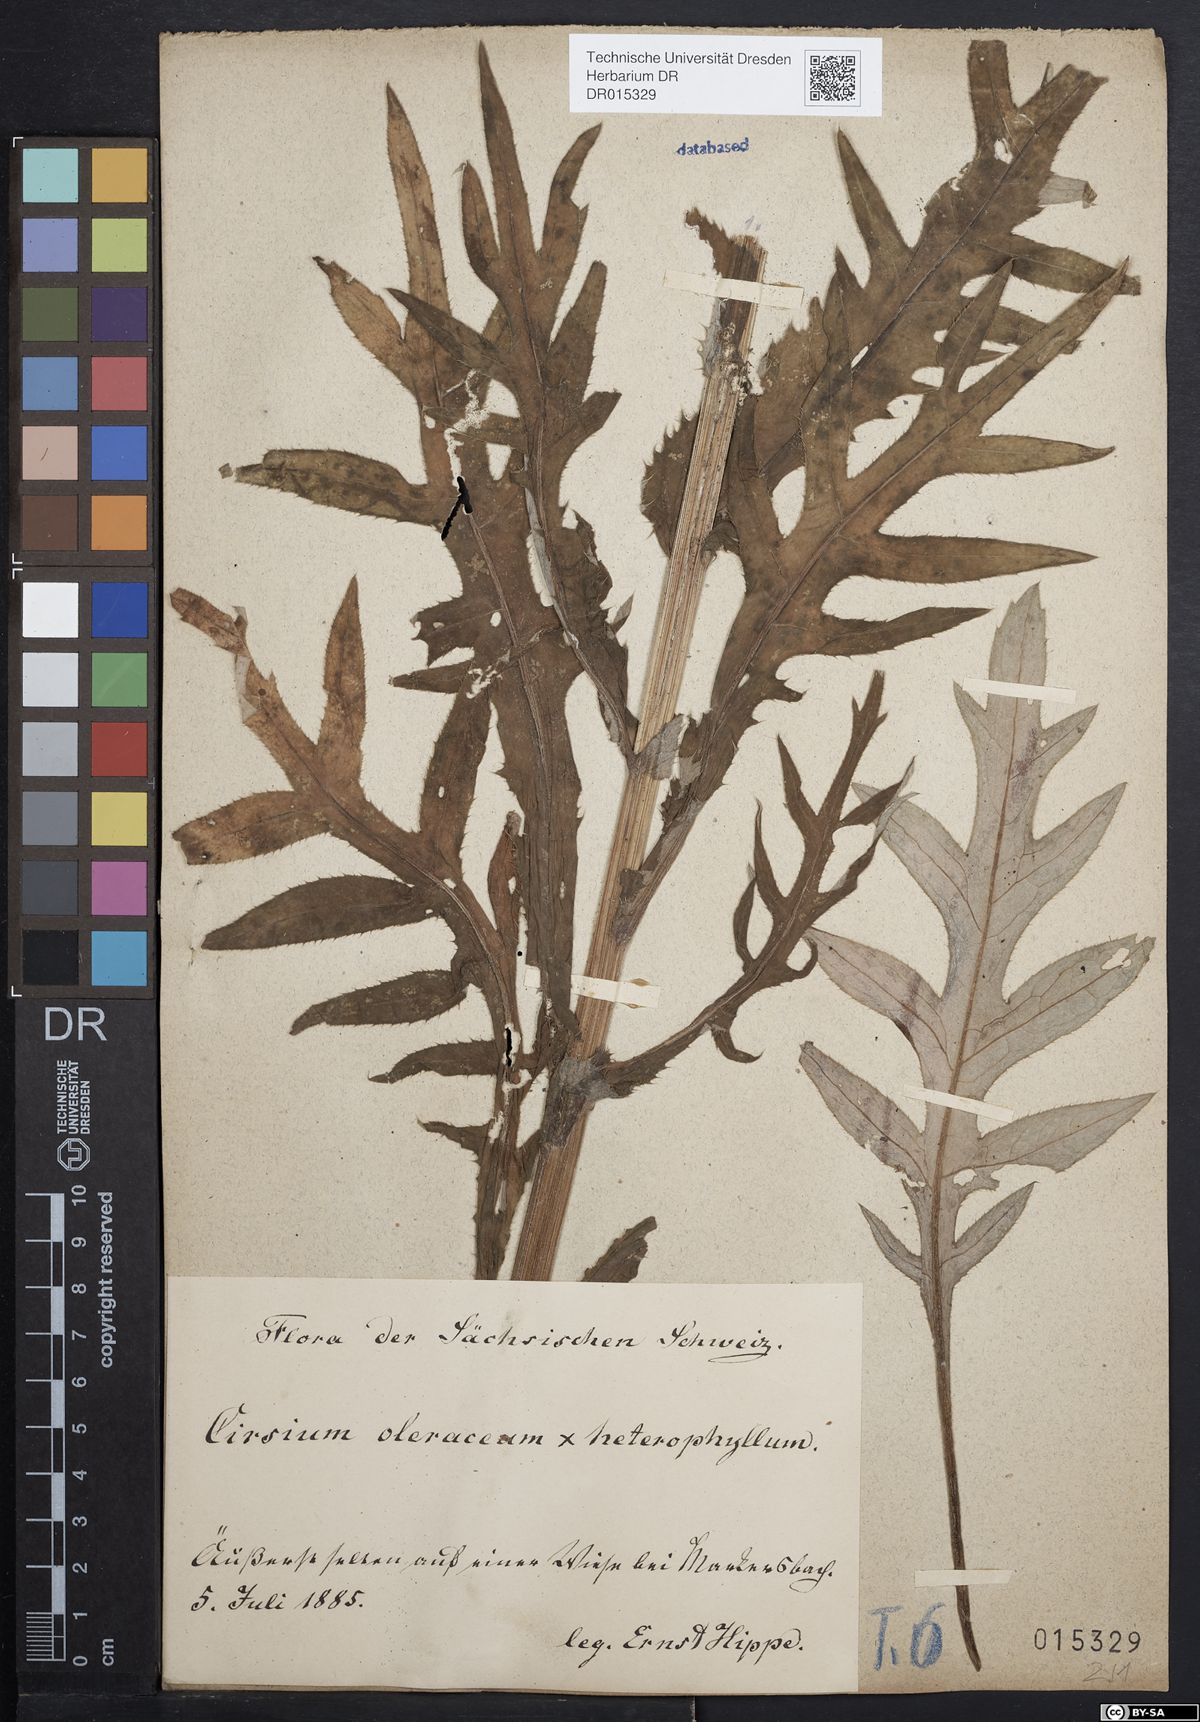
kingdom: Plantae
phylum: Tracheophyta
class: Magnoliopsida
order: Asterales
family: Asteraceae
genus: Cirsium
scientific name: Cirsium affine
